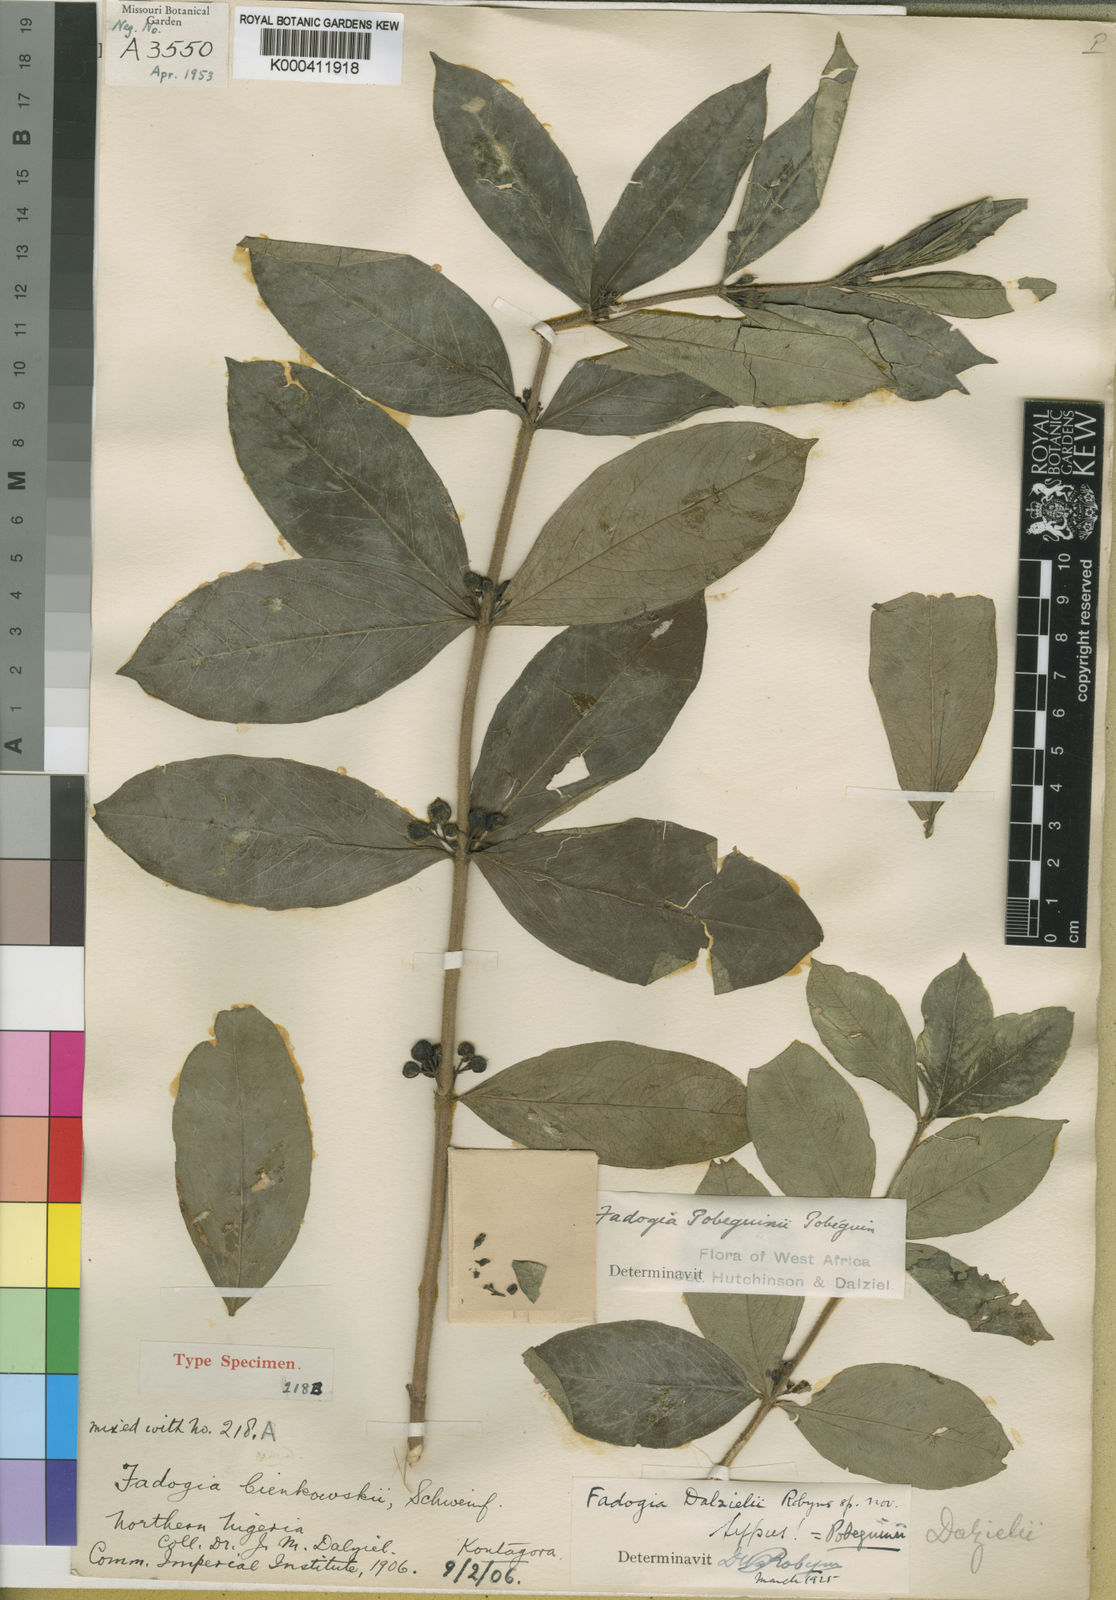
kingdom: Plantae
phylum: Tracheophyta
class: Magnoliopsida
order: Gentianales
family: Rubiaceae
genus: Fadogia
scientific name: Fadogia tetraquetra
